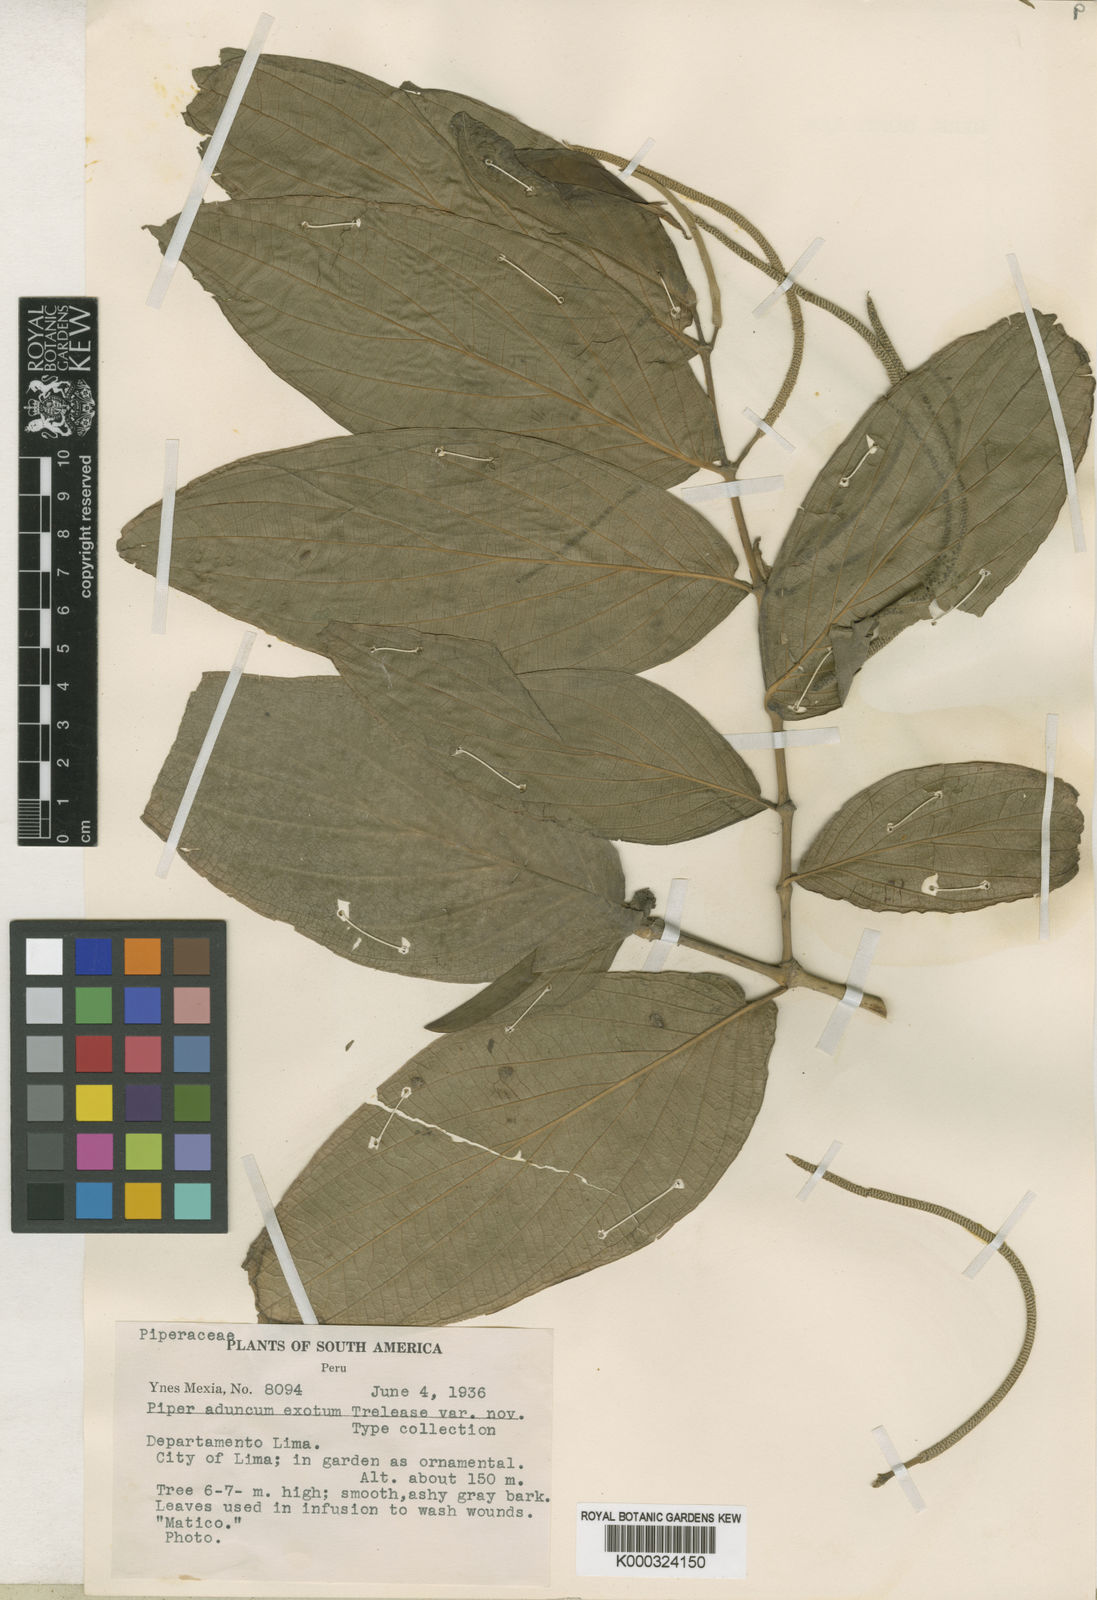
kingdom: Plantae
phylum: Tracheophyta
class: Magnoliopsida
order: Piperales
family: Piperaceae
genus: Piper
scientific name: Piper aduncum
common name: Spiked pepper
